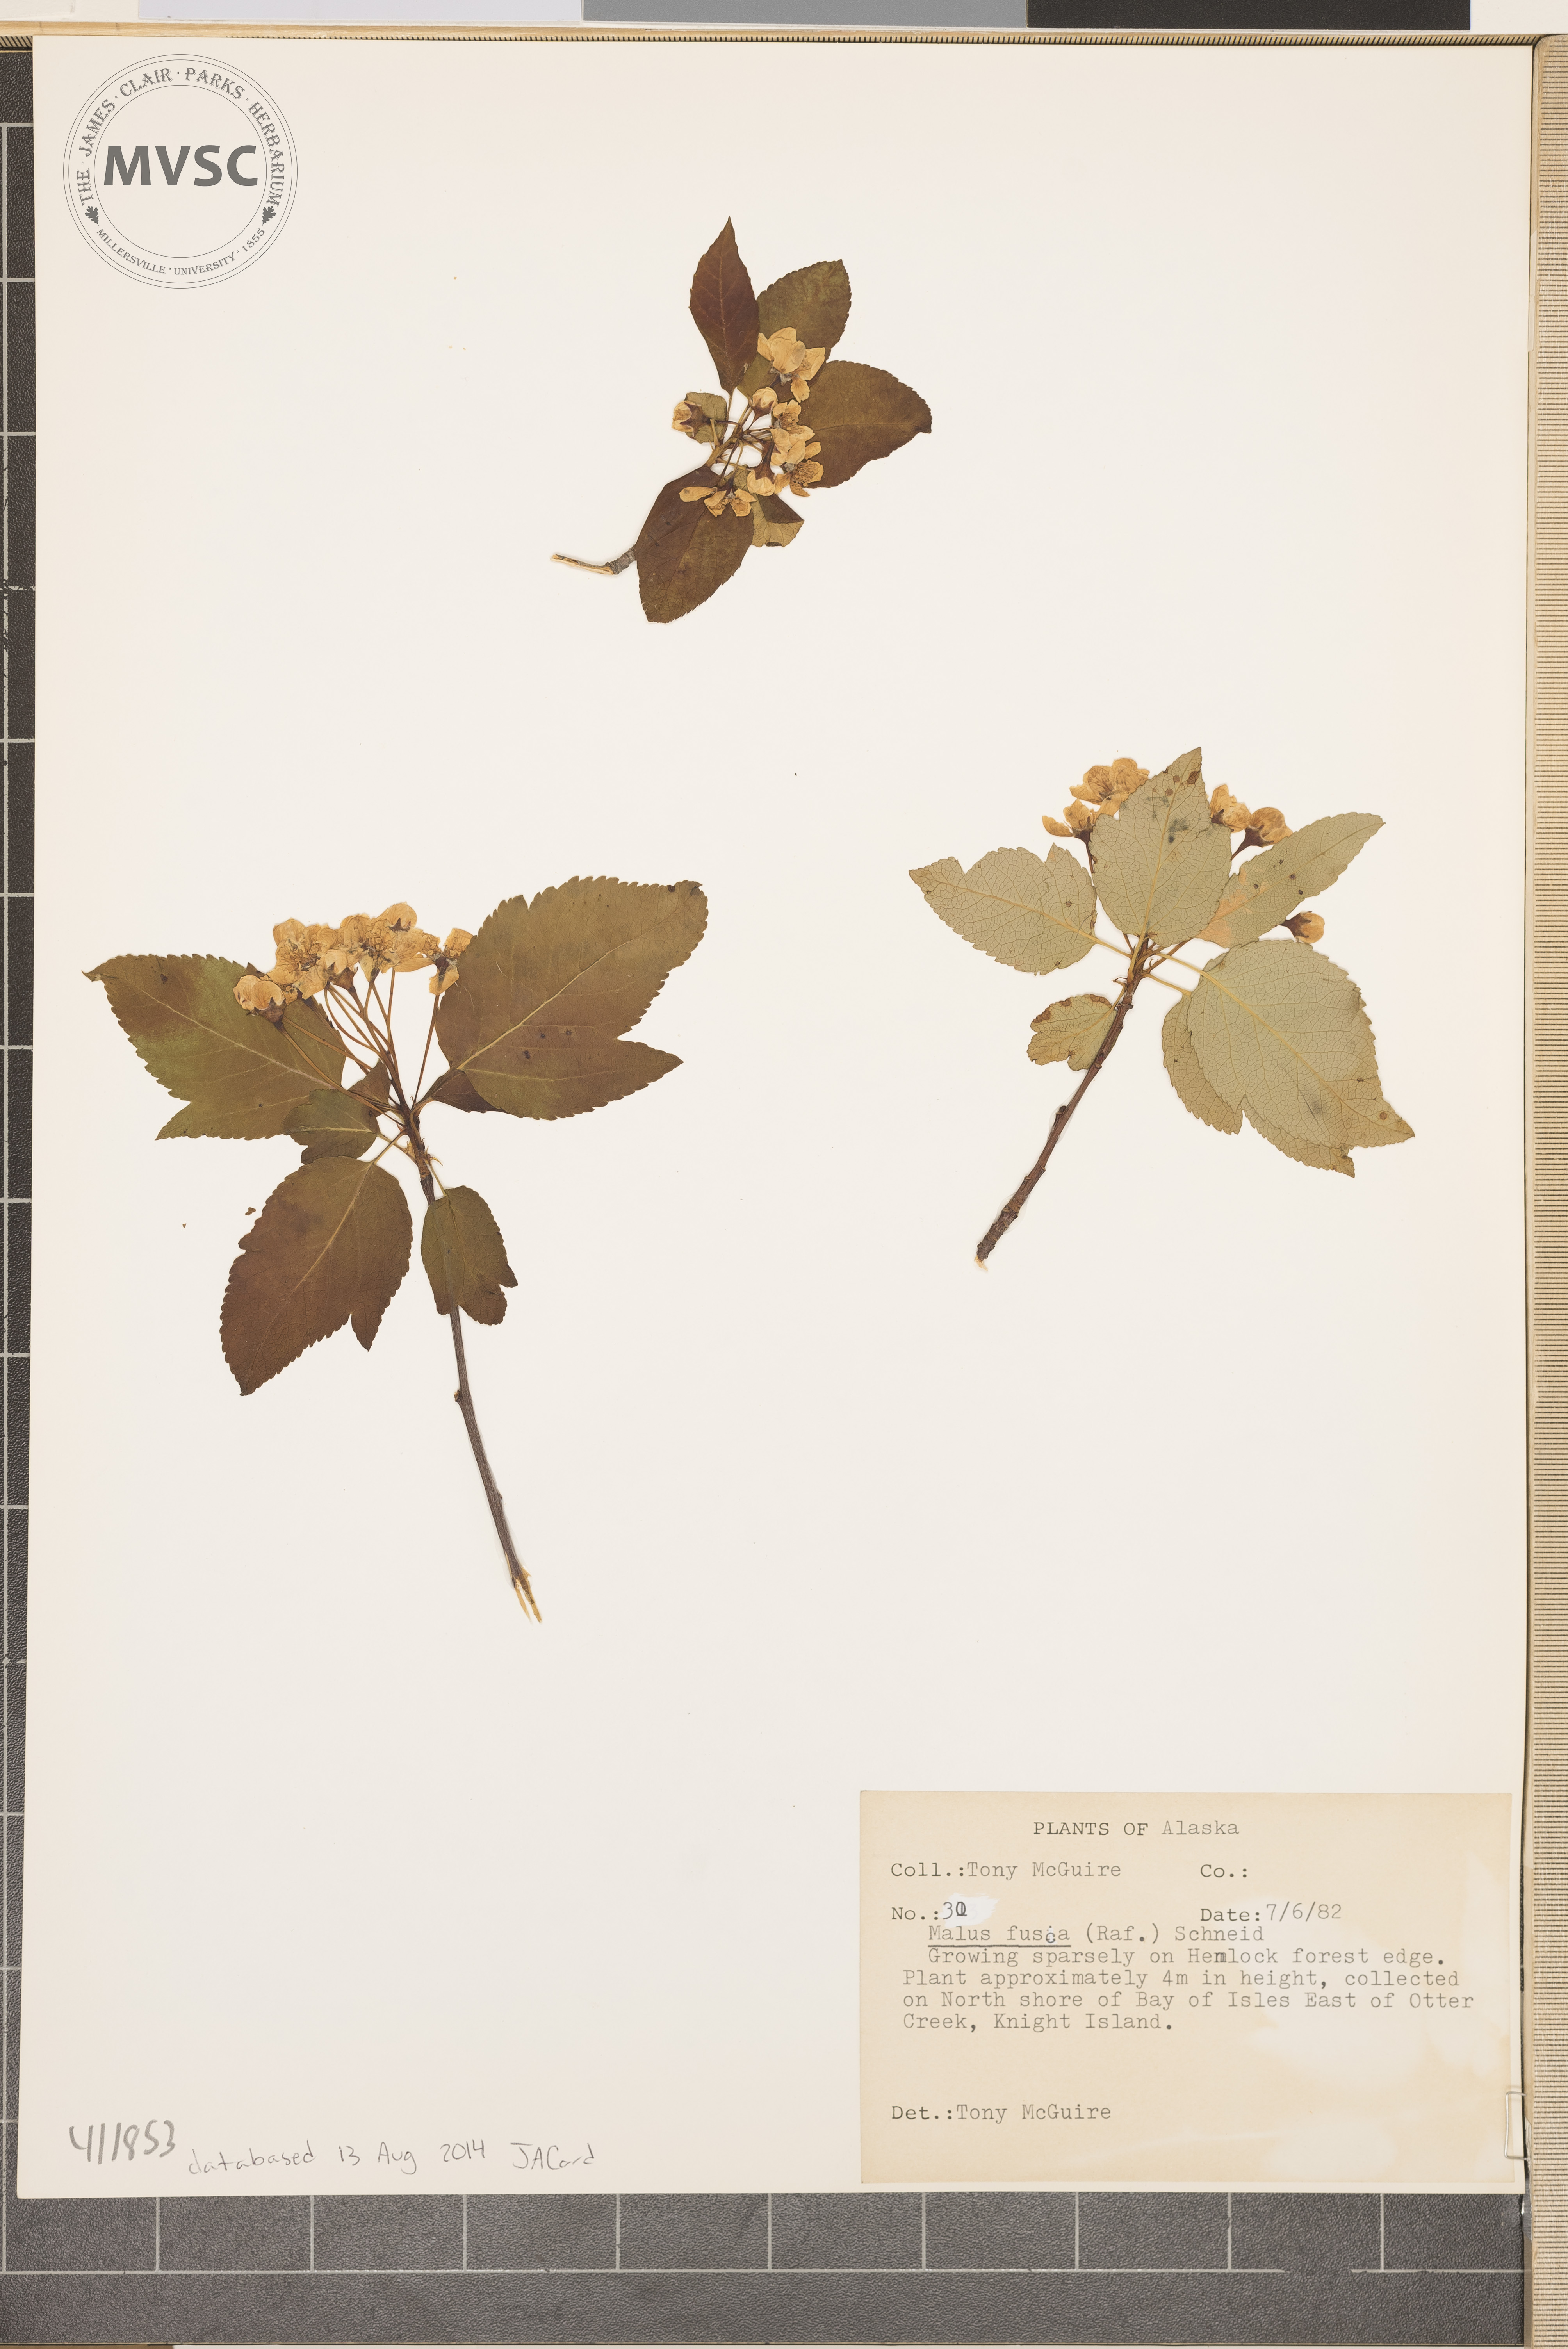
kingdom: Plantae
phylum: Tracheophyta
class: Magnoliopsida
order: Rosales
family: Rosaceae
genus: Malus
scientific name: Malus fusca
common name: Oregon crab apple
